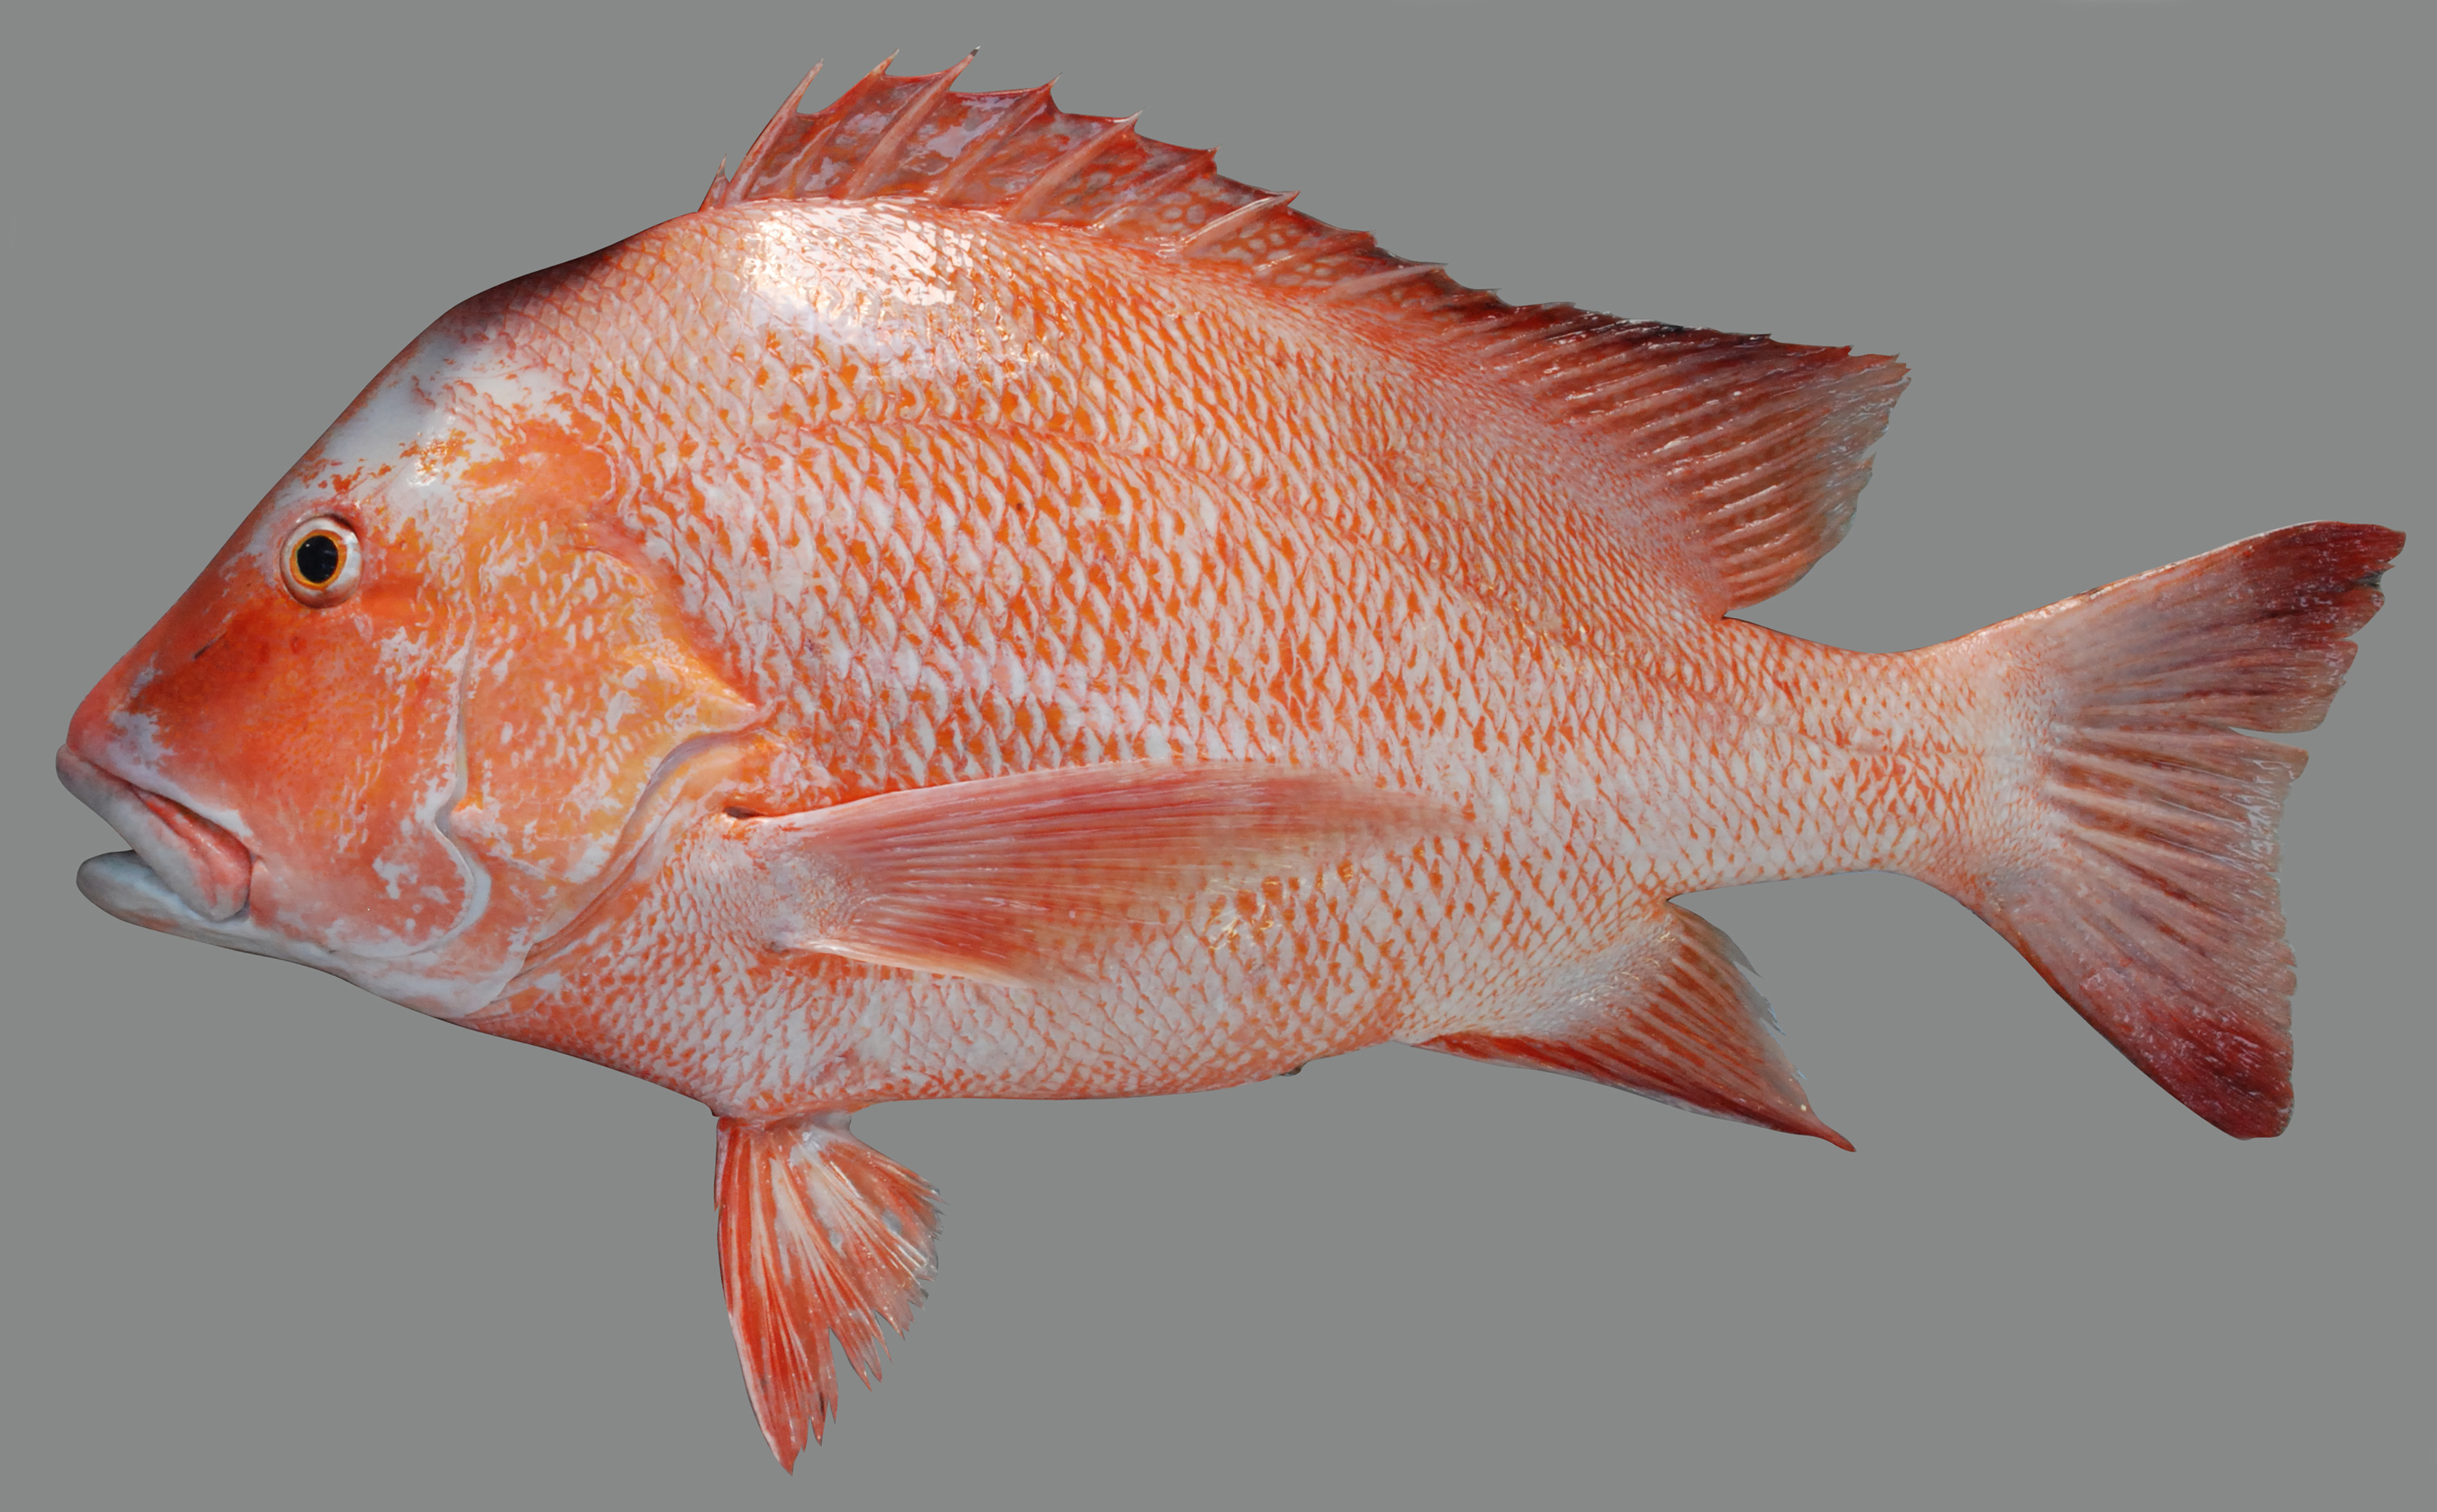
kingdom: Animalia
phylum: Chordata
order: Perciformes
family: Lutjanidae
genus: Lutjanus
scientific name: Lutjanus sebae
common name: Emperor red snapper
